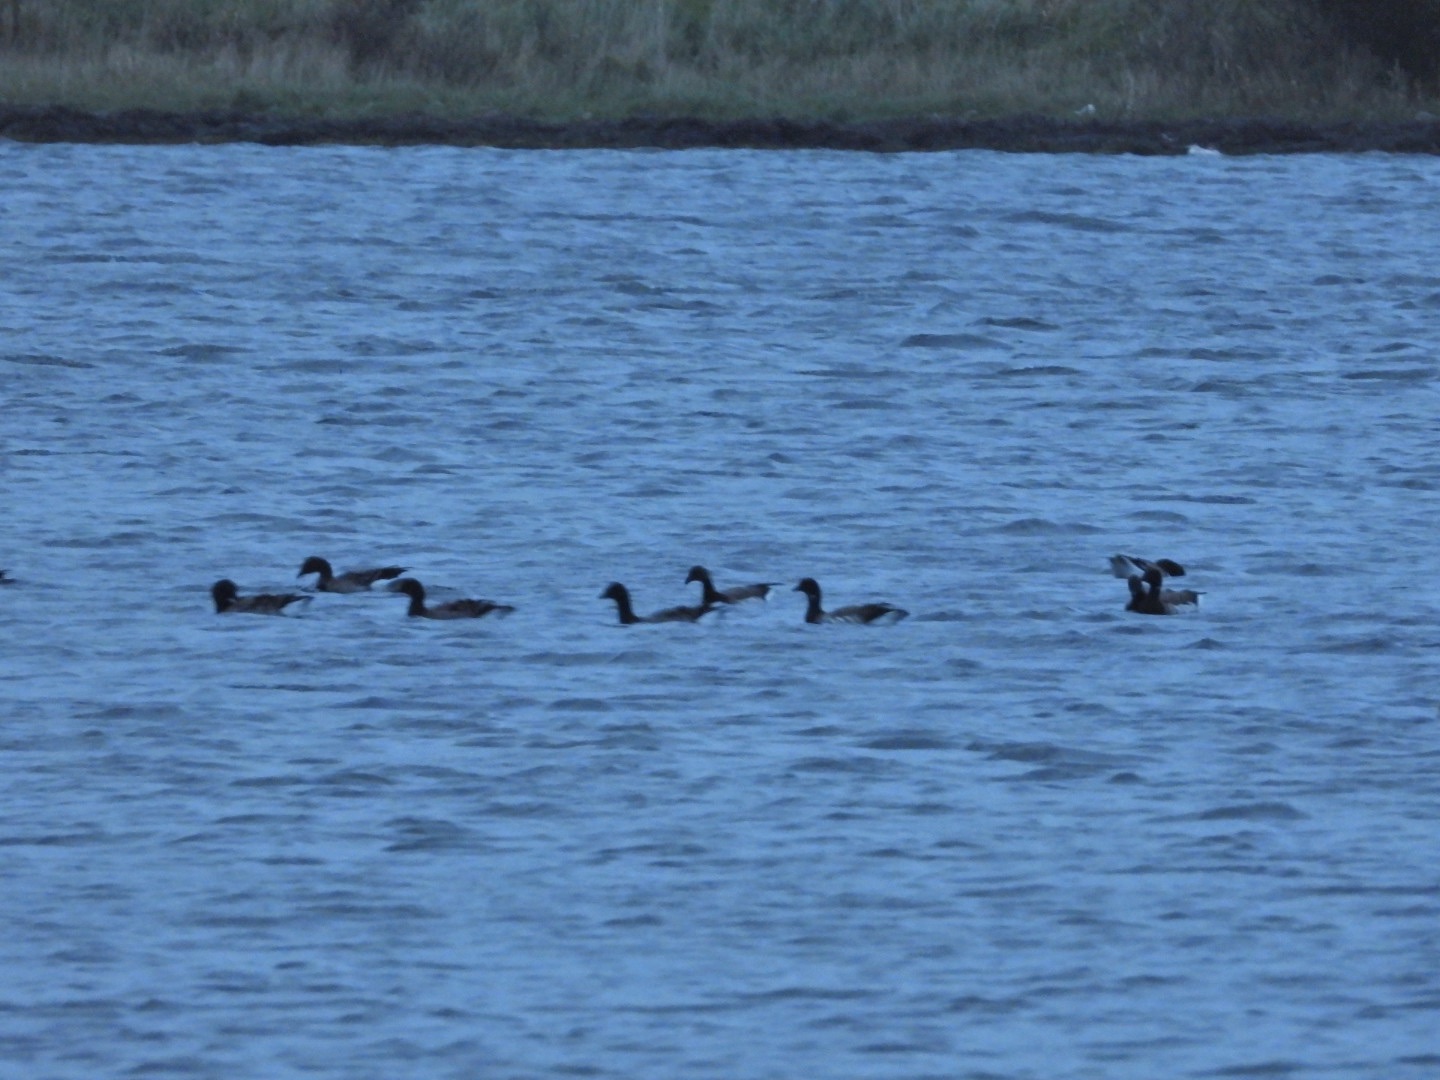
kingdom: Animalia
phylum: Chordata
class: Aves
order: Anseriformes
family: Anatidae
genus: Branta
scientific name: Branta bernicla
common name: Lysbuget knortegås
